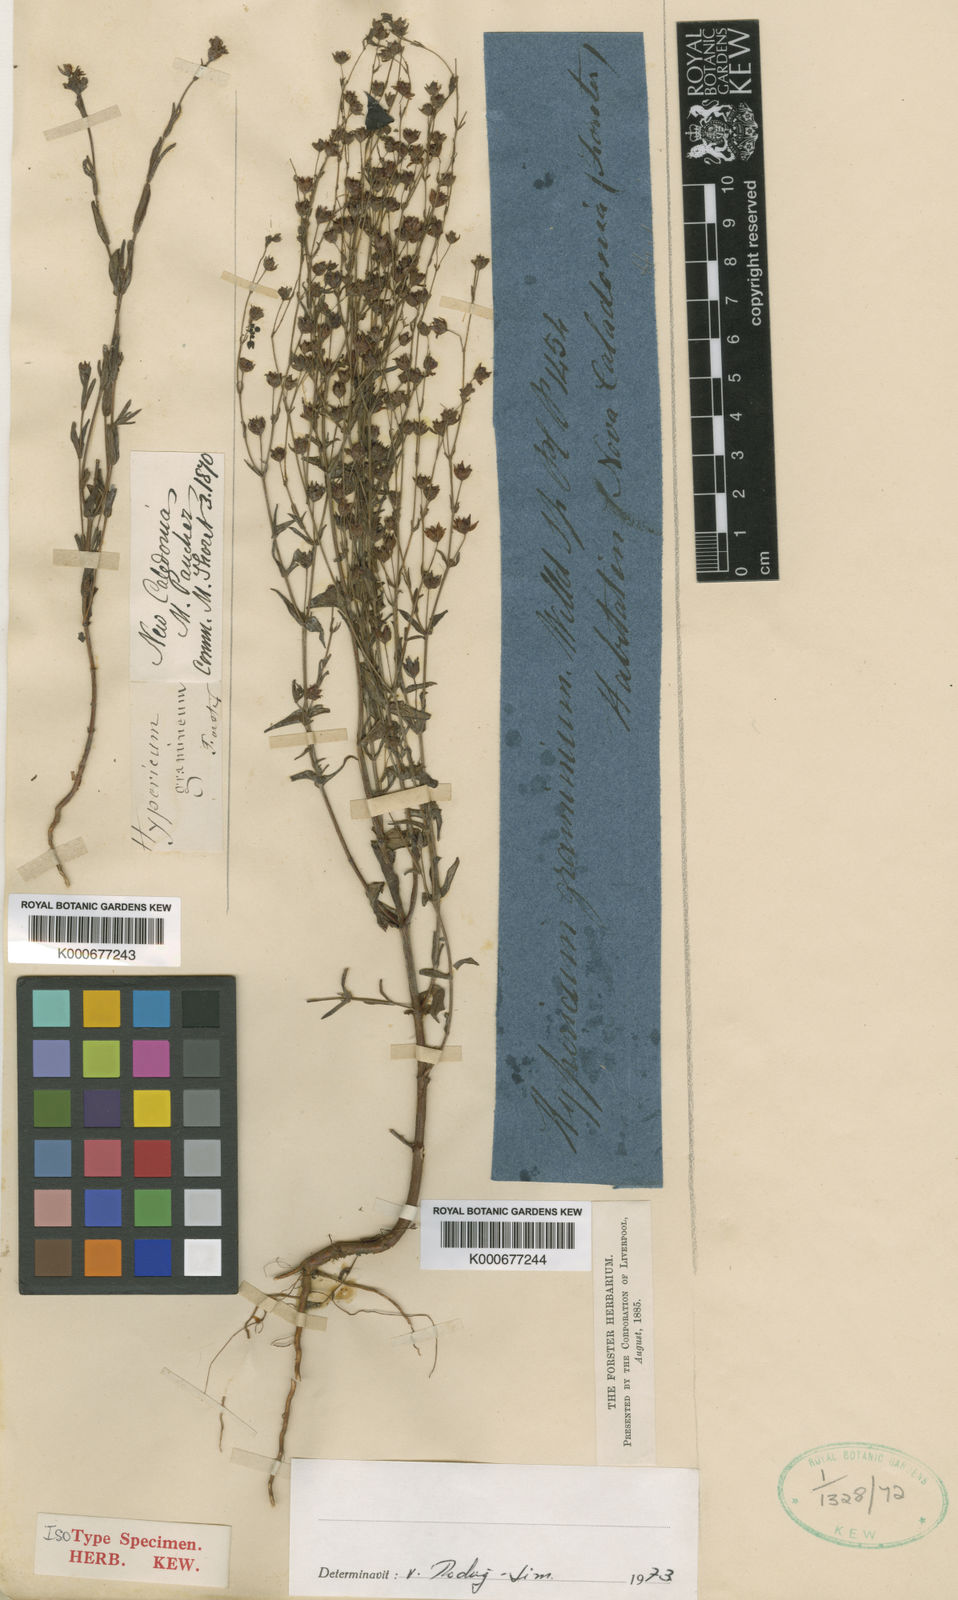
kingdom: Plantae
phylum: Tracheophyta
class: Magnoliopsida
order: Malpighiales
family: Hypericaceae
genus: Hypericum
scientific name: Hypericum gramineum
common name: Grassy st. johnswort
